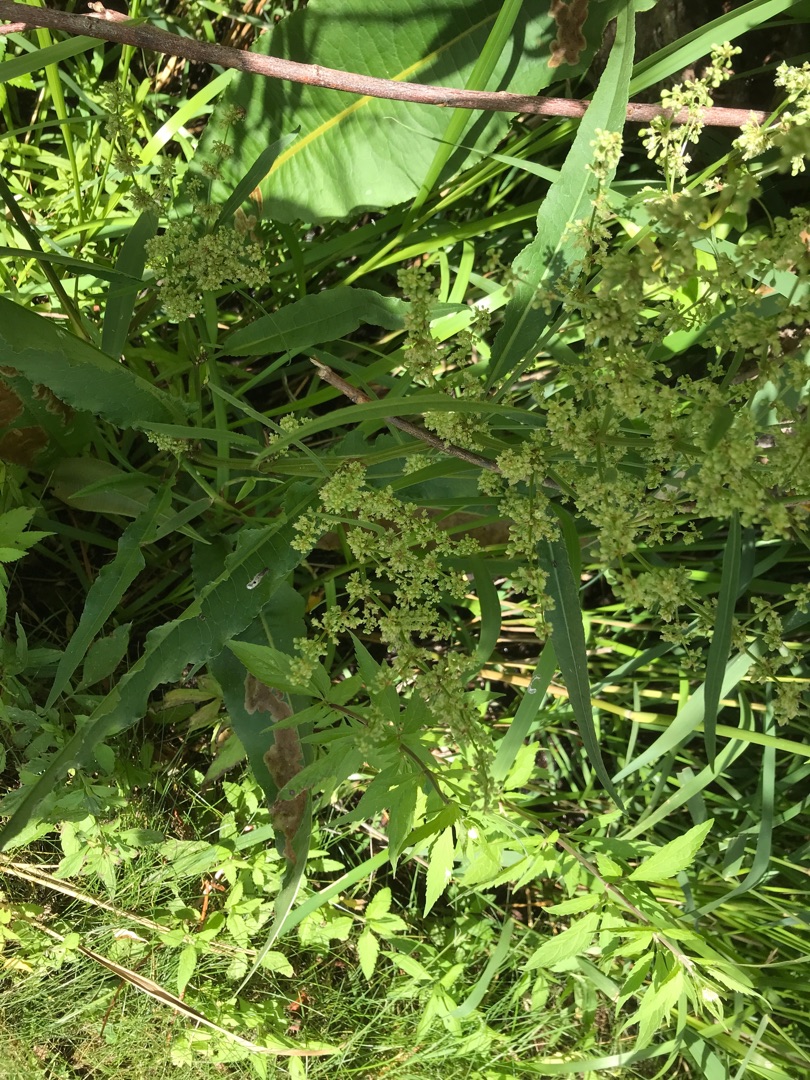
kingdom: Plantae
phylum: Tracheophyta
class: Magnoliopsida
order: Caryophyllales
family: Polygonaceae
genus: Rumex
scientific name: Rumex hydrolapathum
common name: Vand-skræppe
